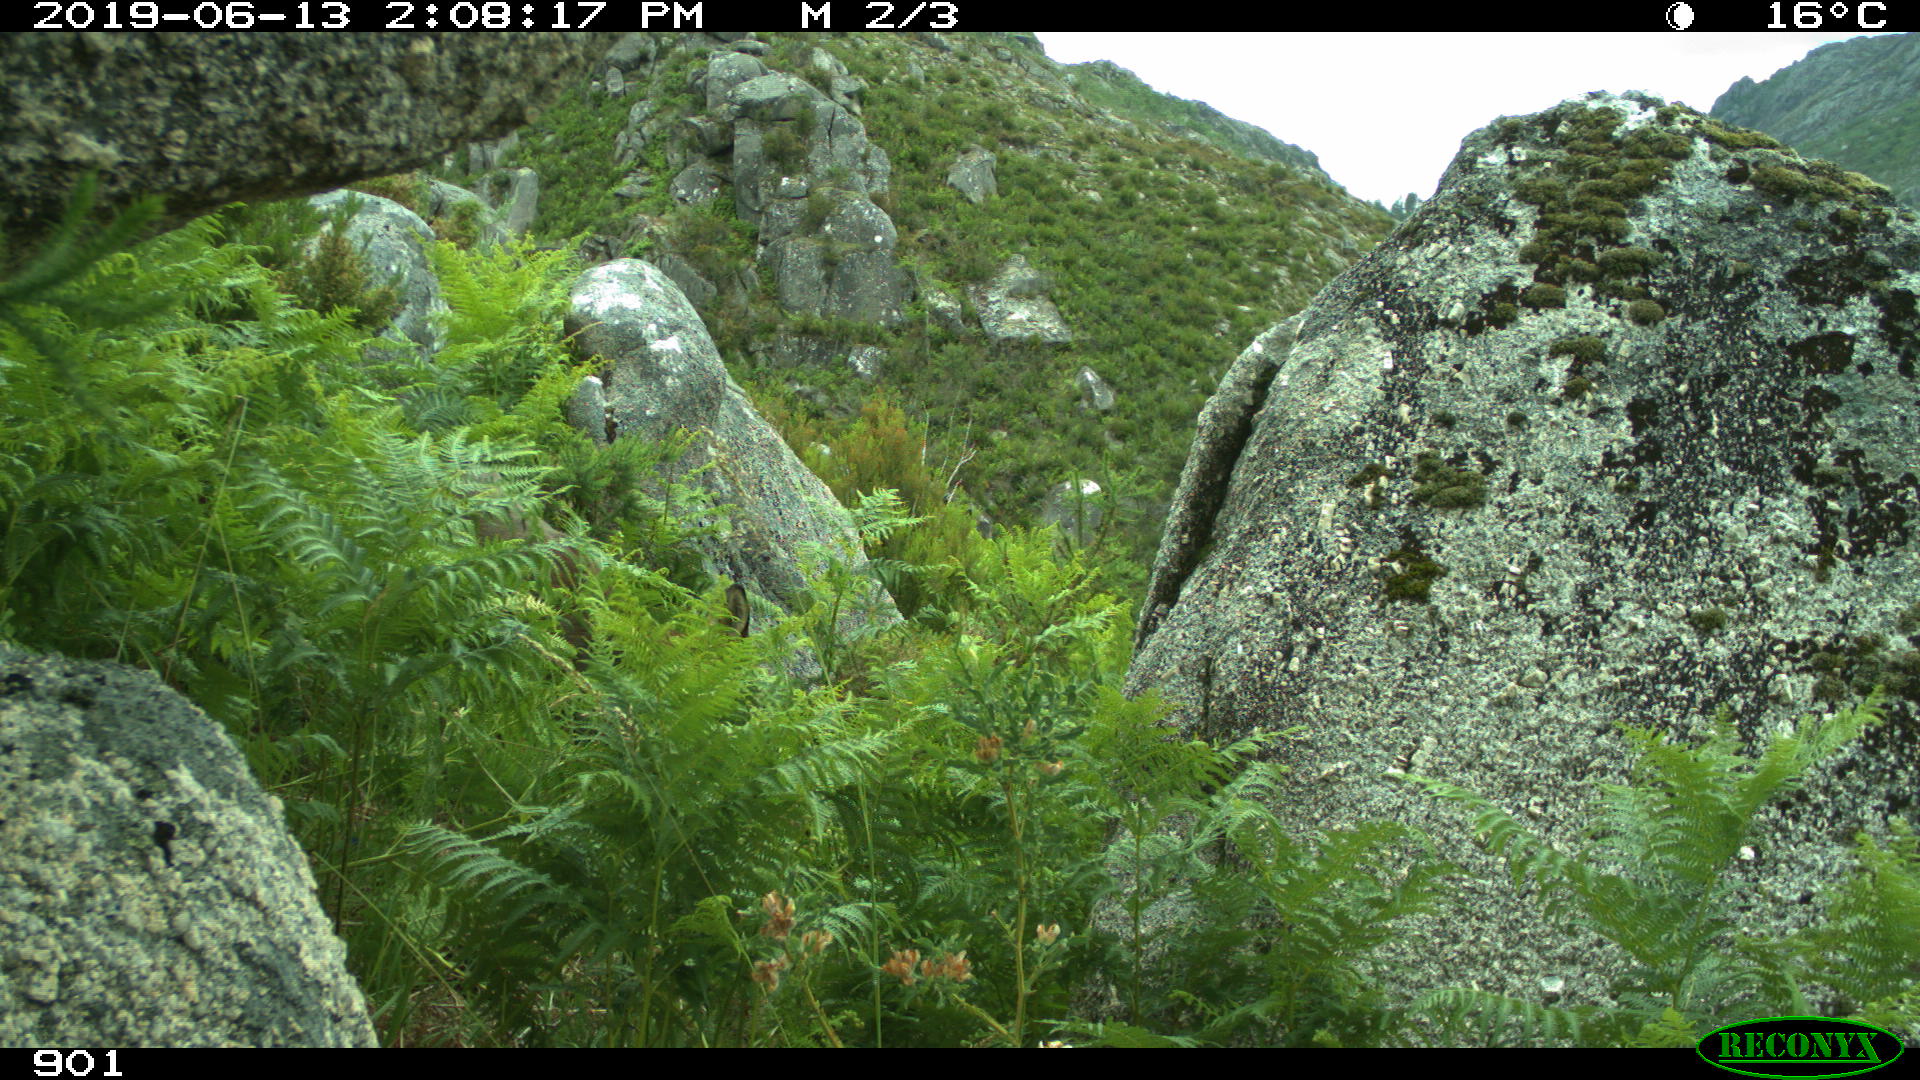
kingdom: Animalia
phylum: Chordata
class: Mammalia
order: Artiodactyla
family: Cervidae
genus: Capreolus
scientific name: Capreolus capreolus
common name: Western roe deer
